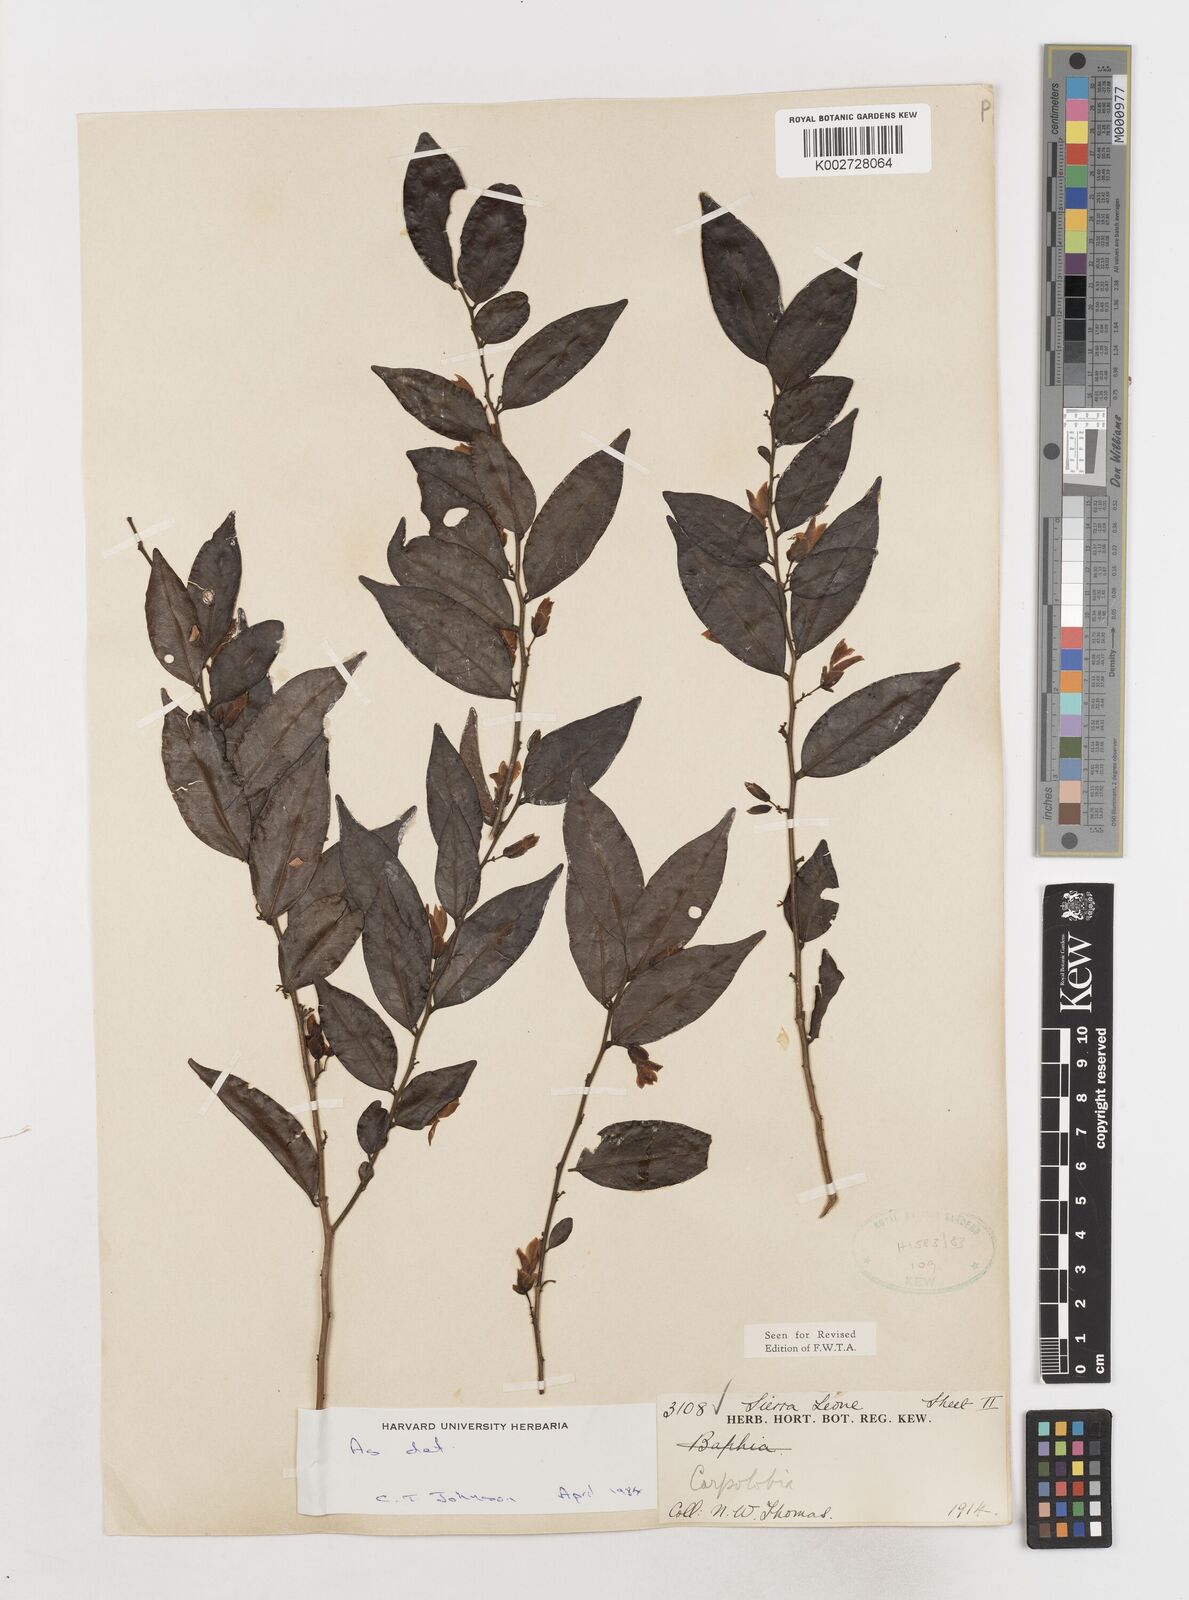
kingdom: Plantae
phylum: Tracheophyta
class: Magnoliopsida
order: Fabales
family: Polygalaceae
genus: Carpolobia
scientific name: Carpolobia
